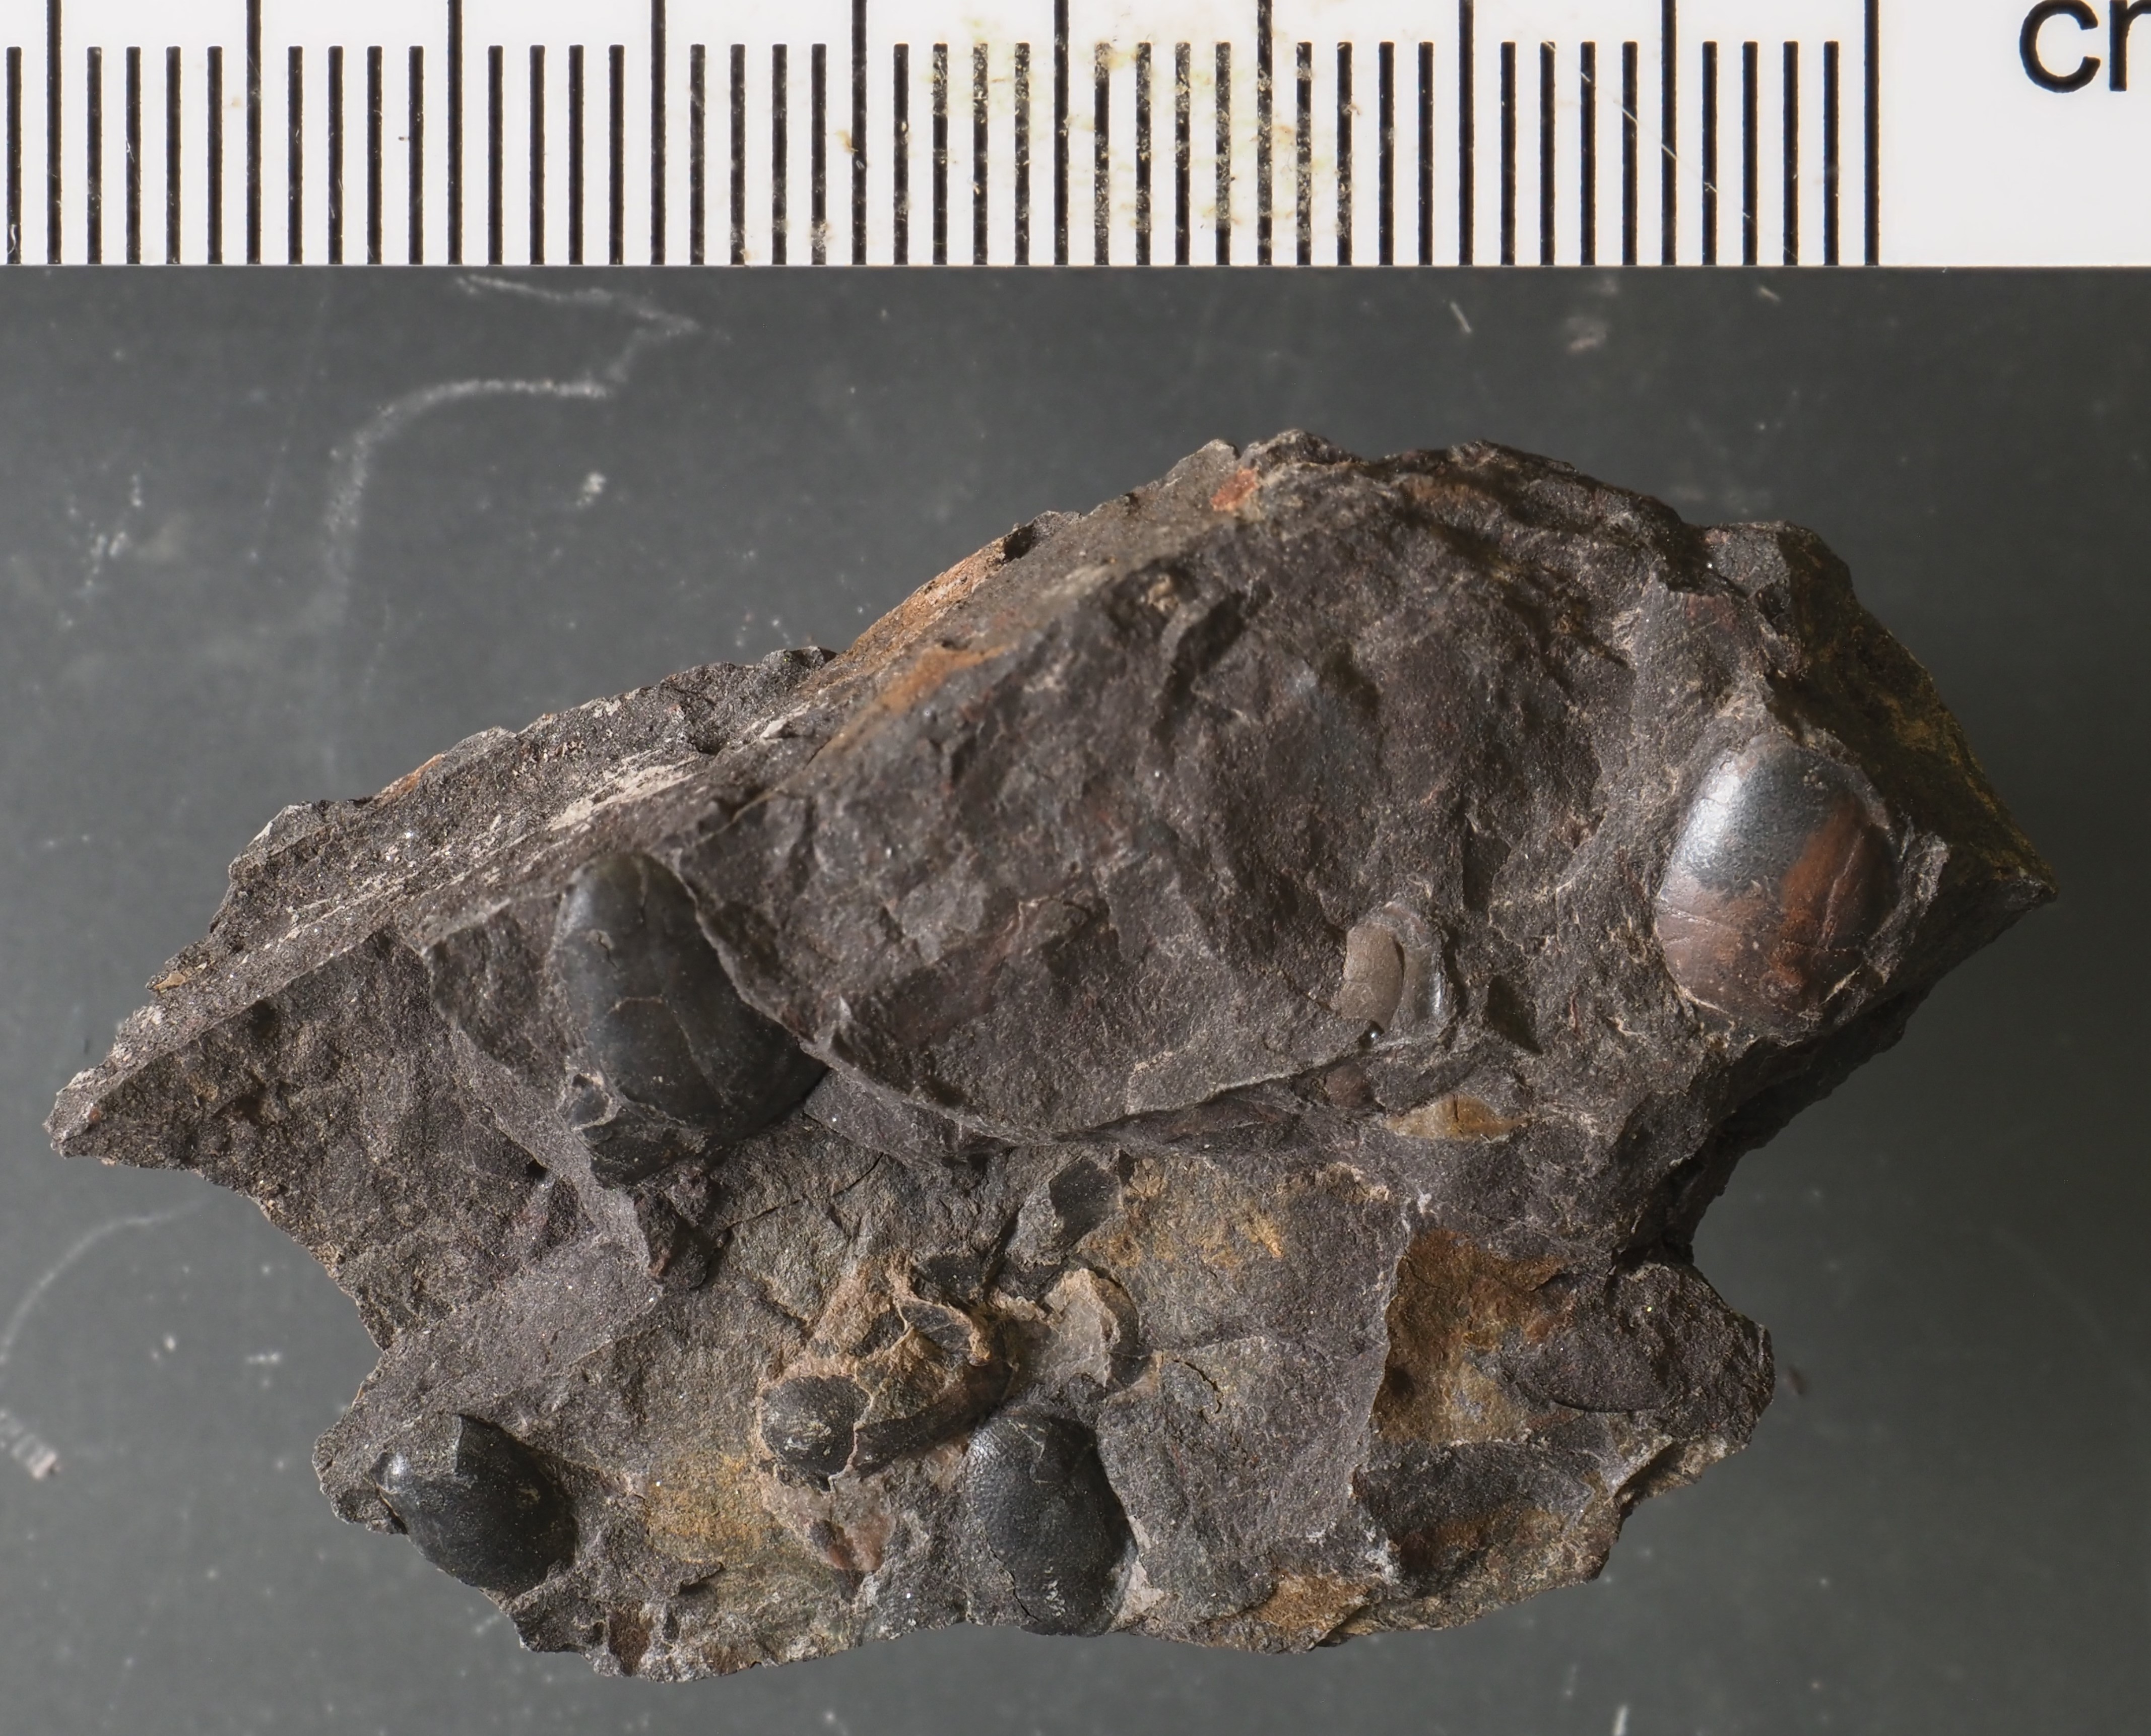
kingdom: Animalia
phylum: Arthropoda
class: Ostracoda
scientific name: Ostracoda
